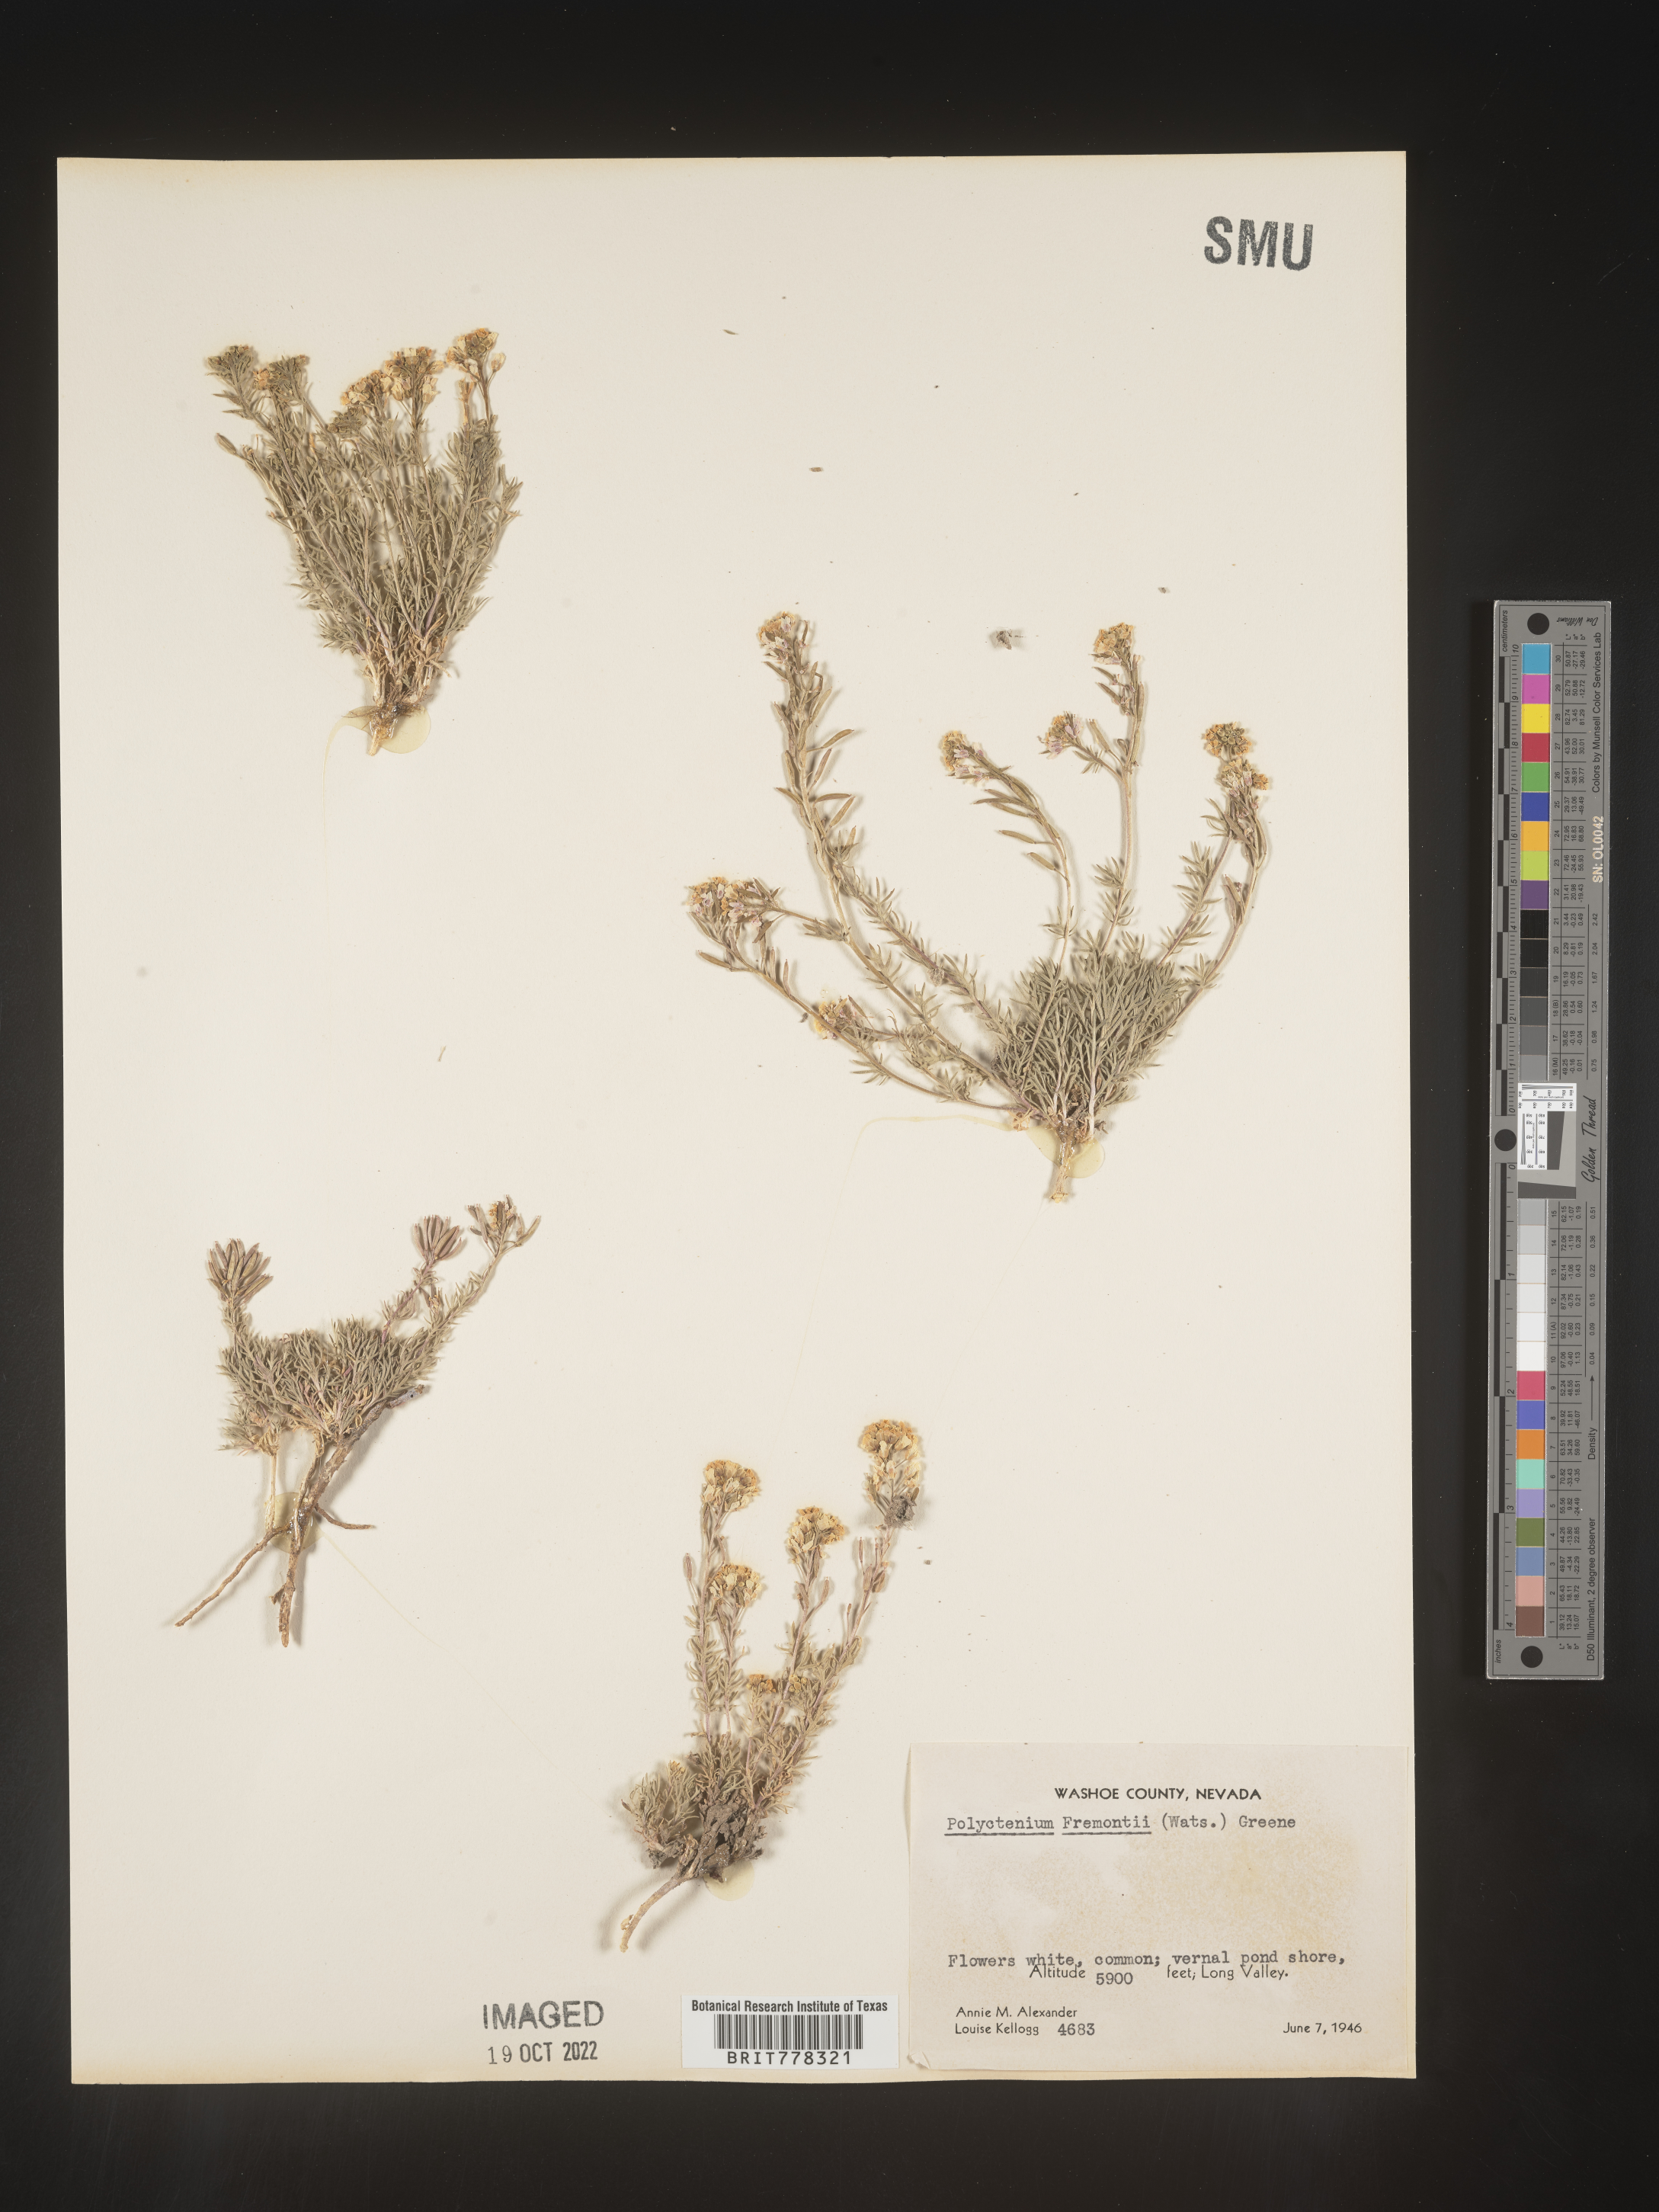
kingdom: Plantae
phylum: Tracheophyta
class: Magnoliopsida
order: Brassicales
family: Brassicaceae
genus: Polyctenium
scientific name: Polyctenium
